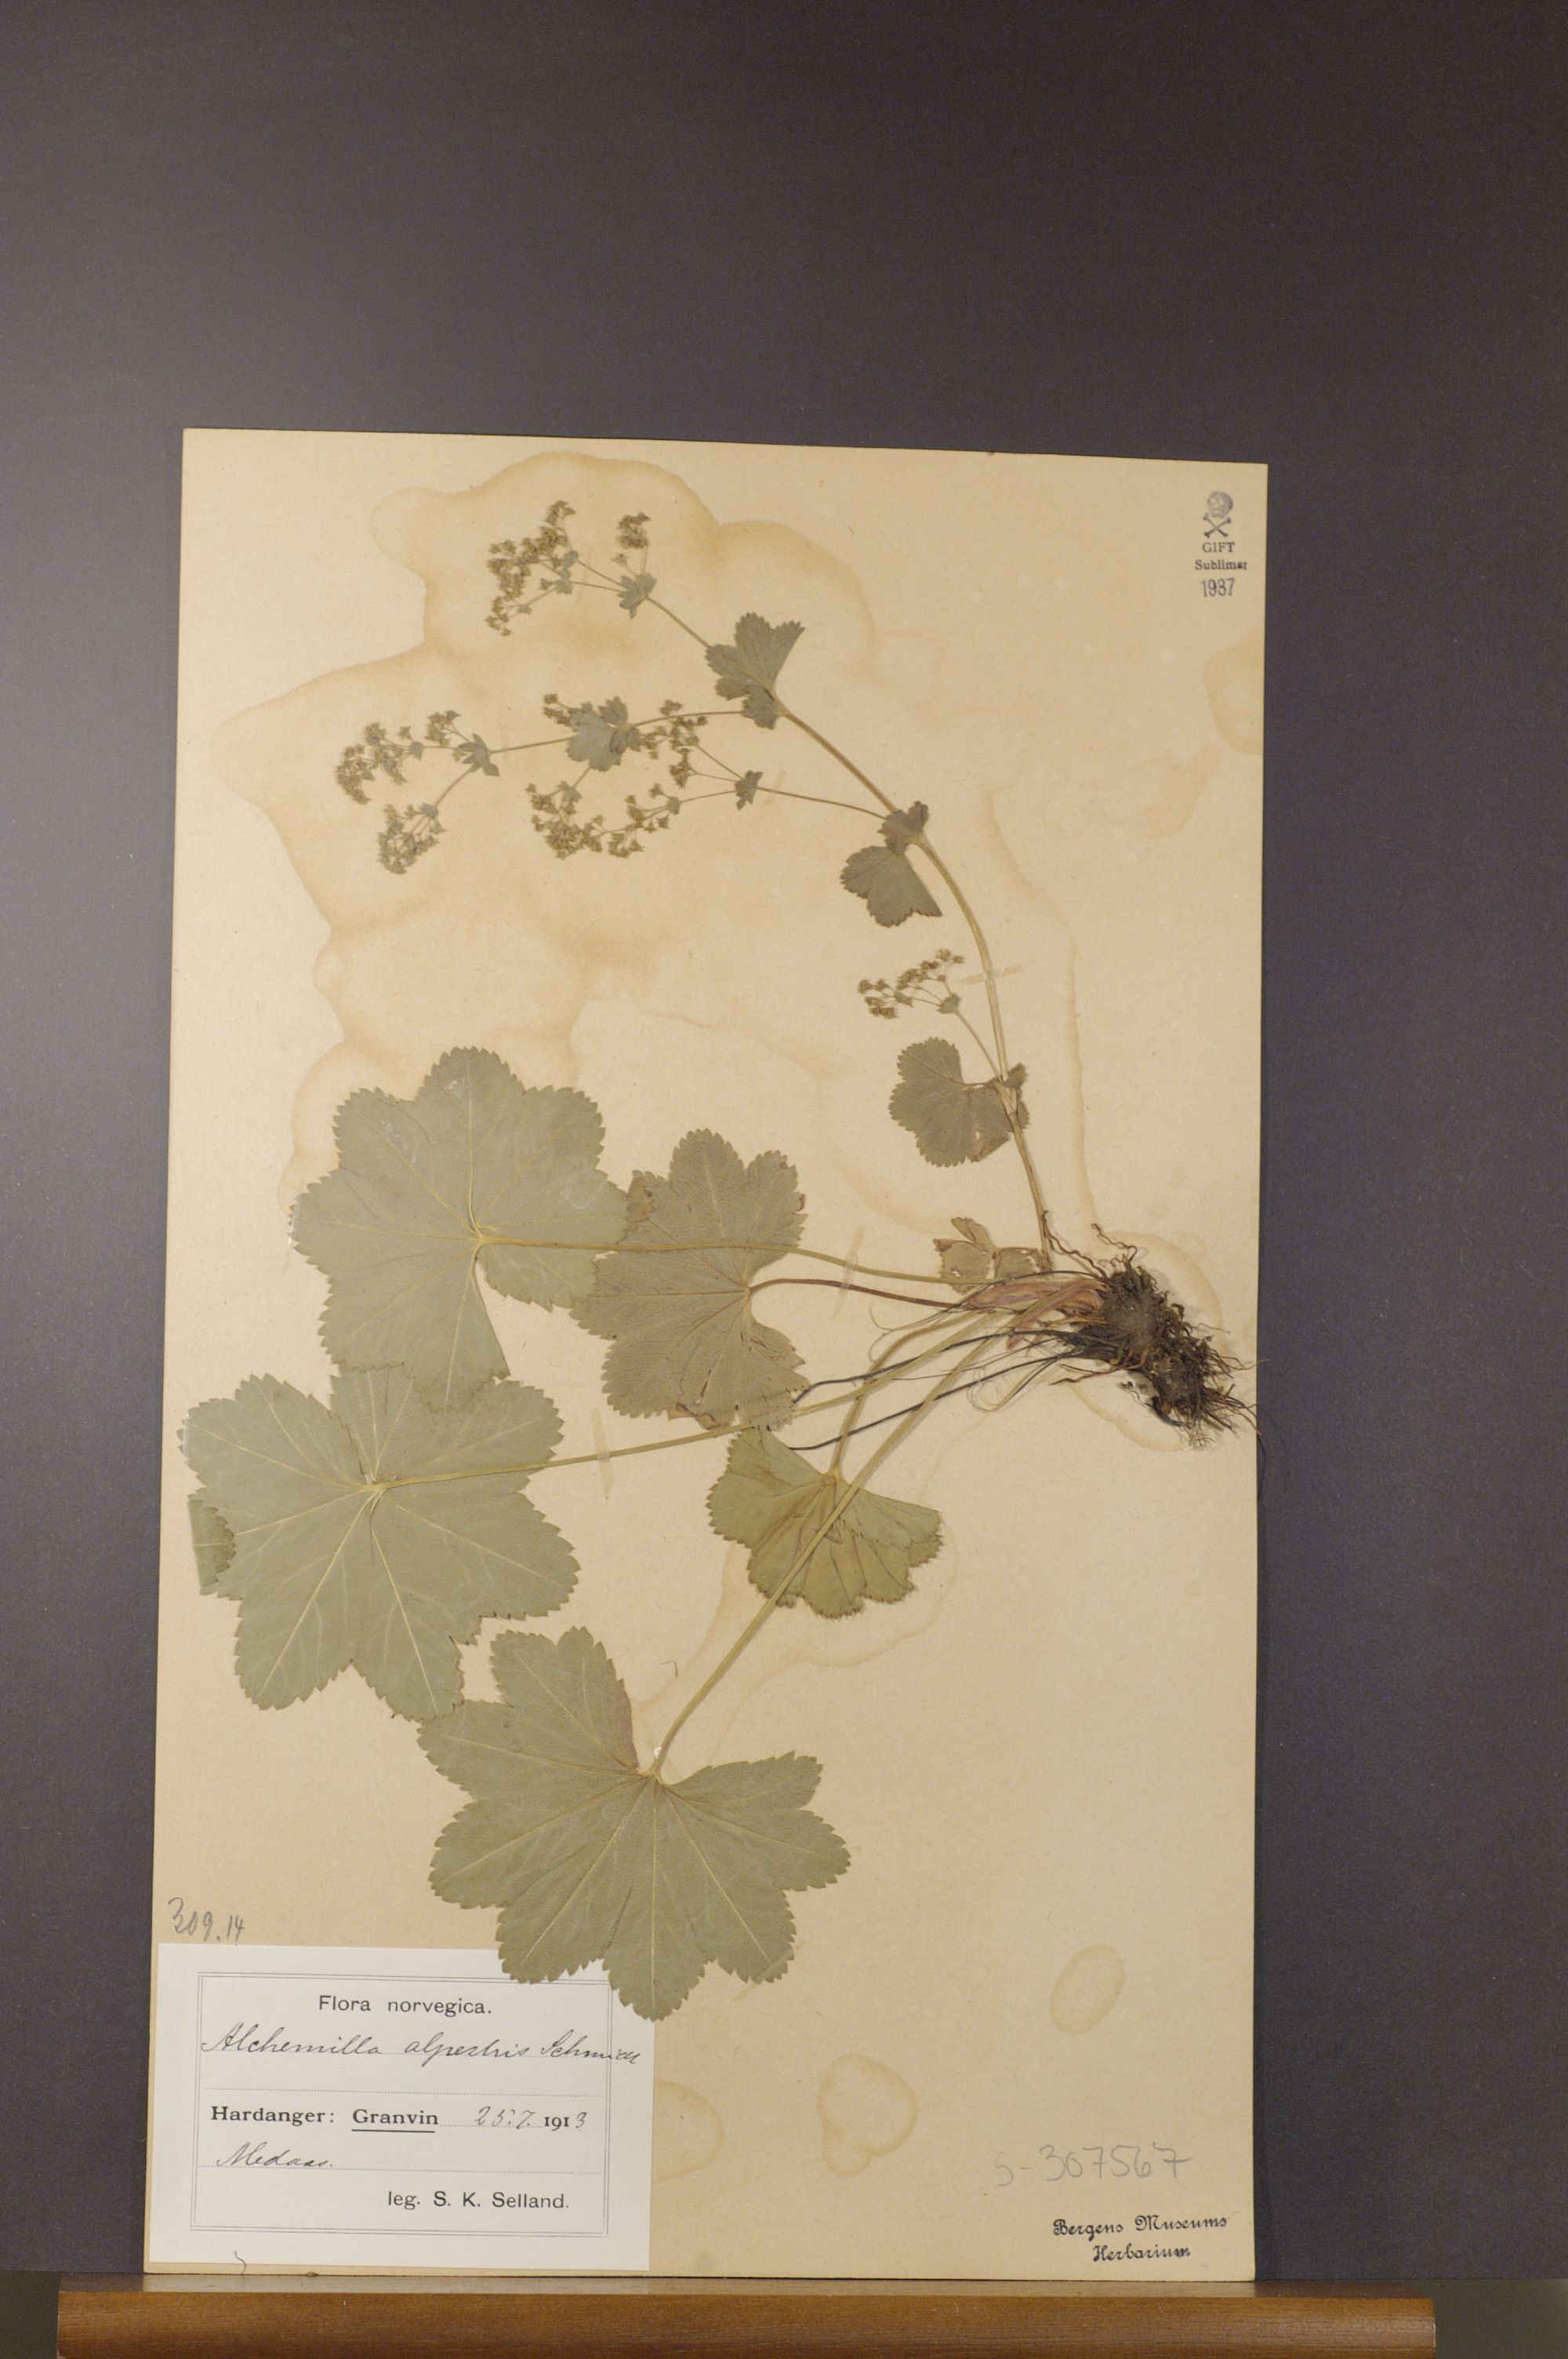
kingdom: Plantae
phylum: Tracheophyta
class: Magnoliopsida
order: Rosales
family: Rosaceae
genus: Alchemilla
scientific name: Alchemilla glabra
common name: Smooth lady's-mantle
